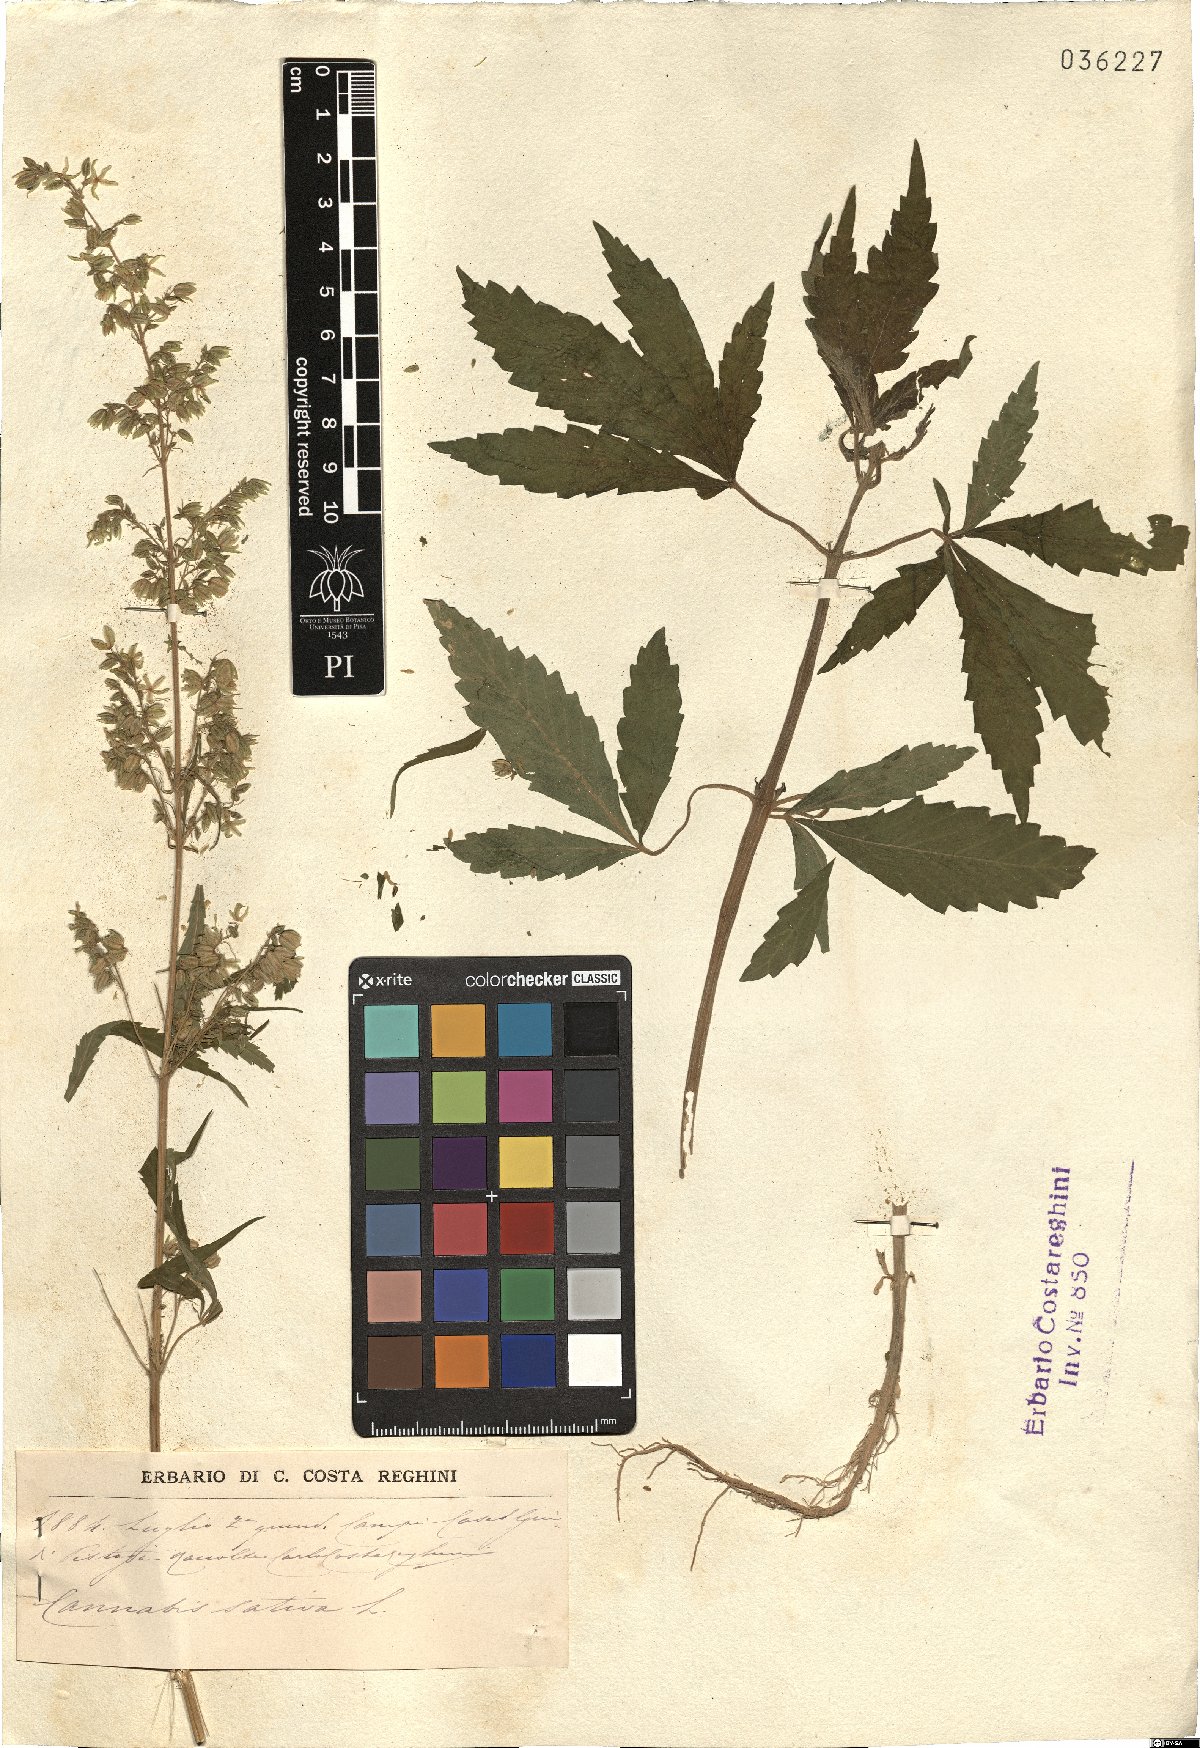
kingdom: Plantae
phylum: Tracheophyta
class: Magnoliopsida
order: Rosales
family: Cannabaceae
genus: Cannabis
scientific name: Cannabis sativa
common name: Hemp
